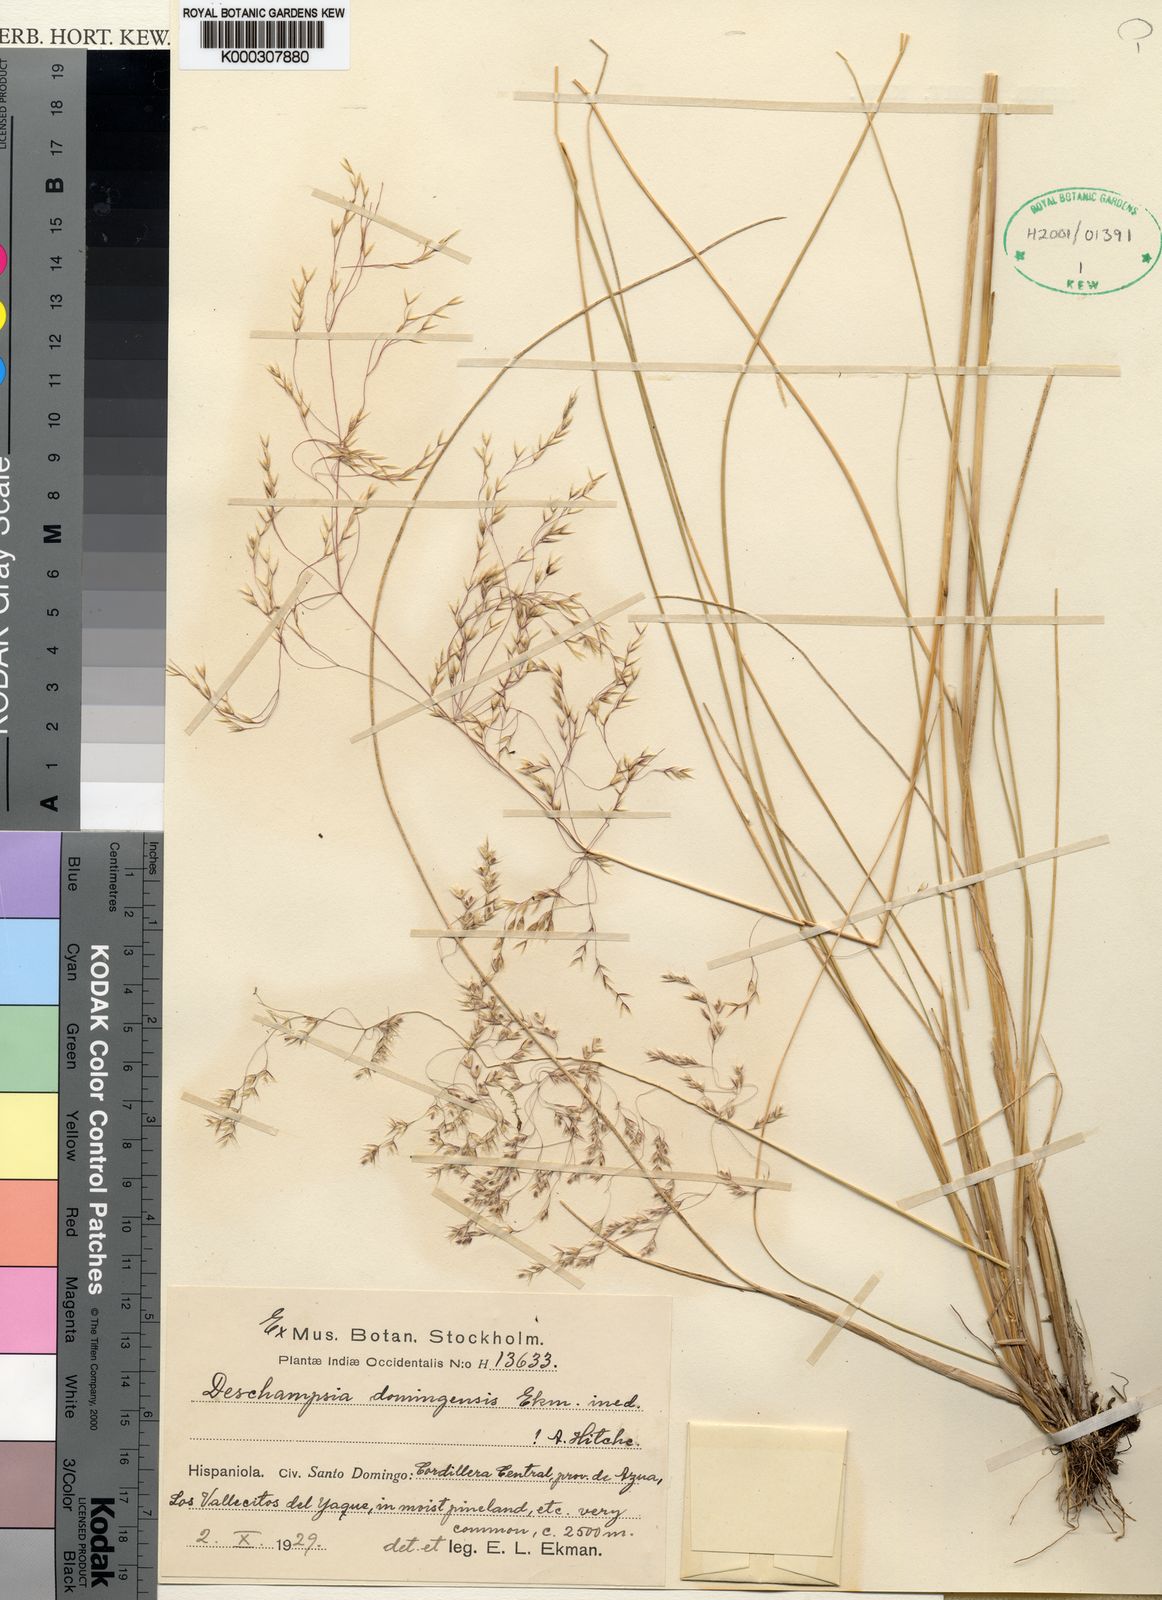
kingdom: Plantae
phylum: Tracheophyta
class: Liliopsida
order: Poales
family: Poaceae
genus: Deschampsia
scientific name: Deschampsia domingensis
